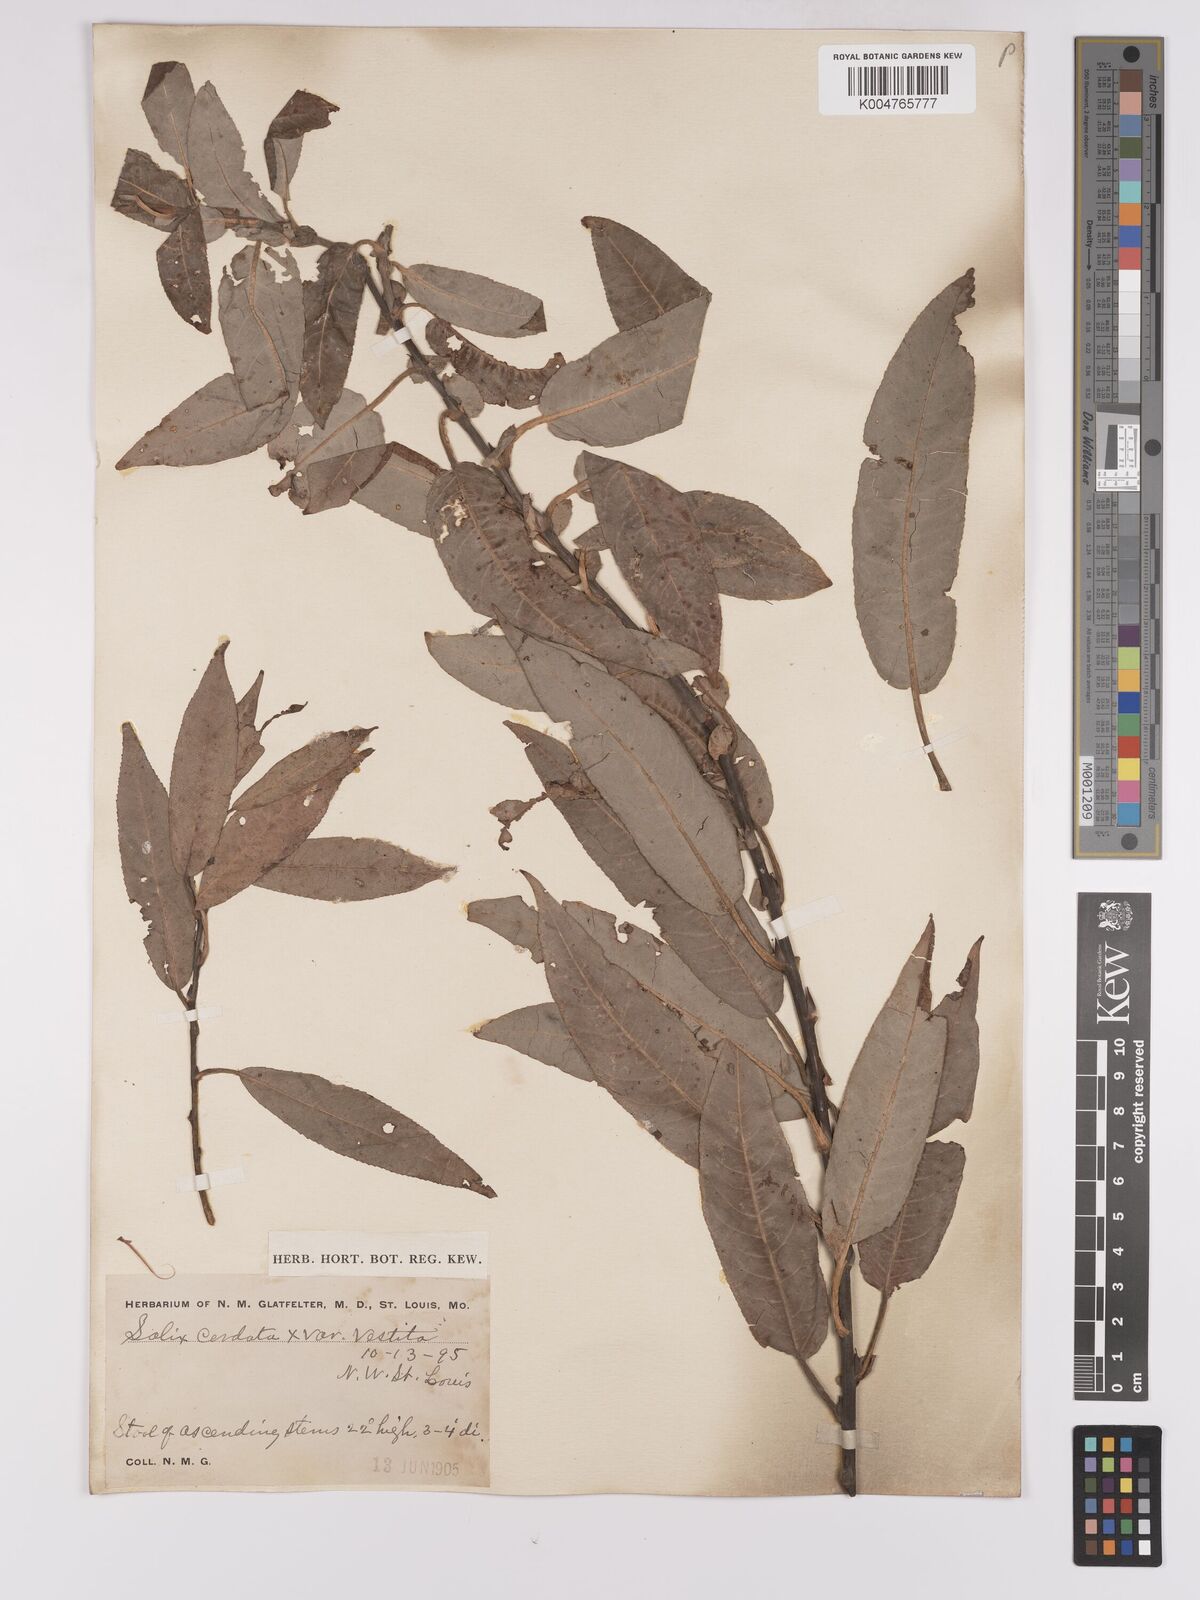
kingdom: Plantae
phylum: Tracheophyta
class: Magnoliopsida
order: Malpighiales
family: Salicaceae
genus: Salix
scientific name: Salix cordata
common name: Heart-leaf willow
